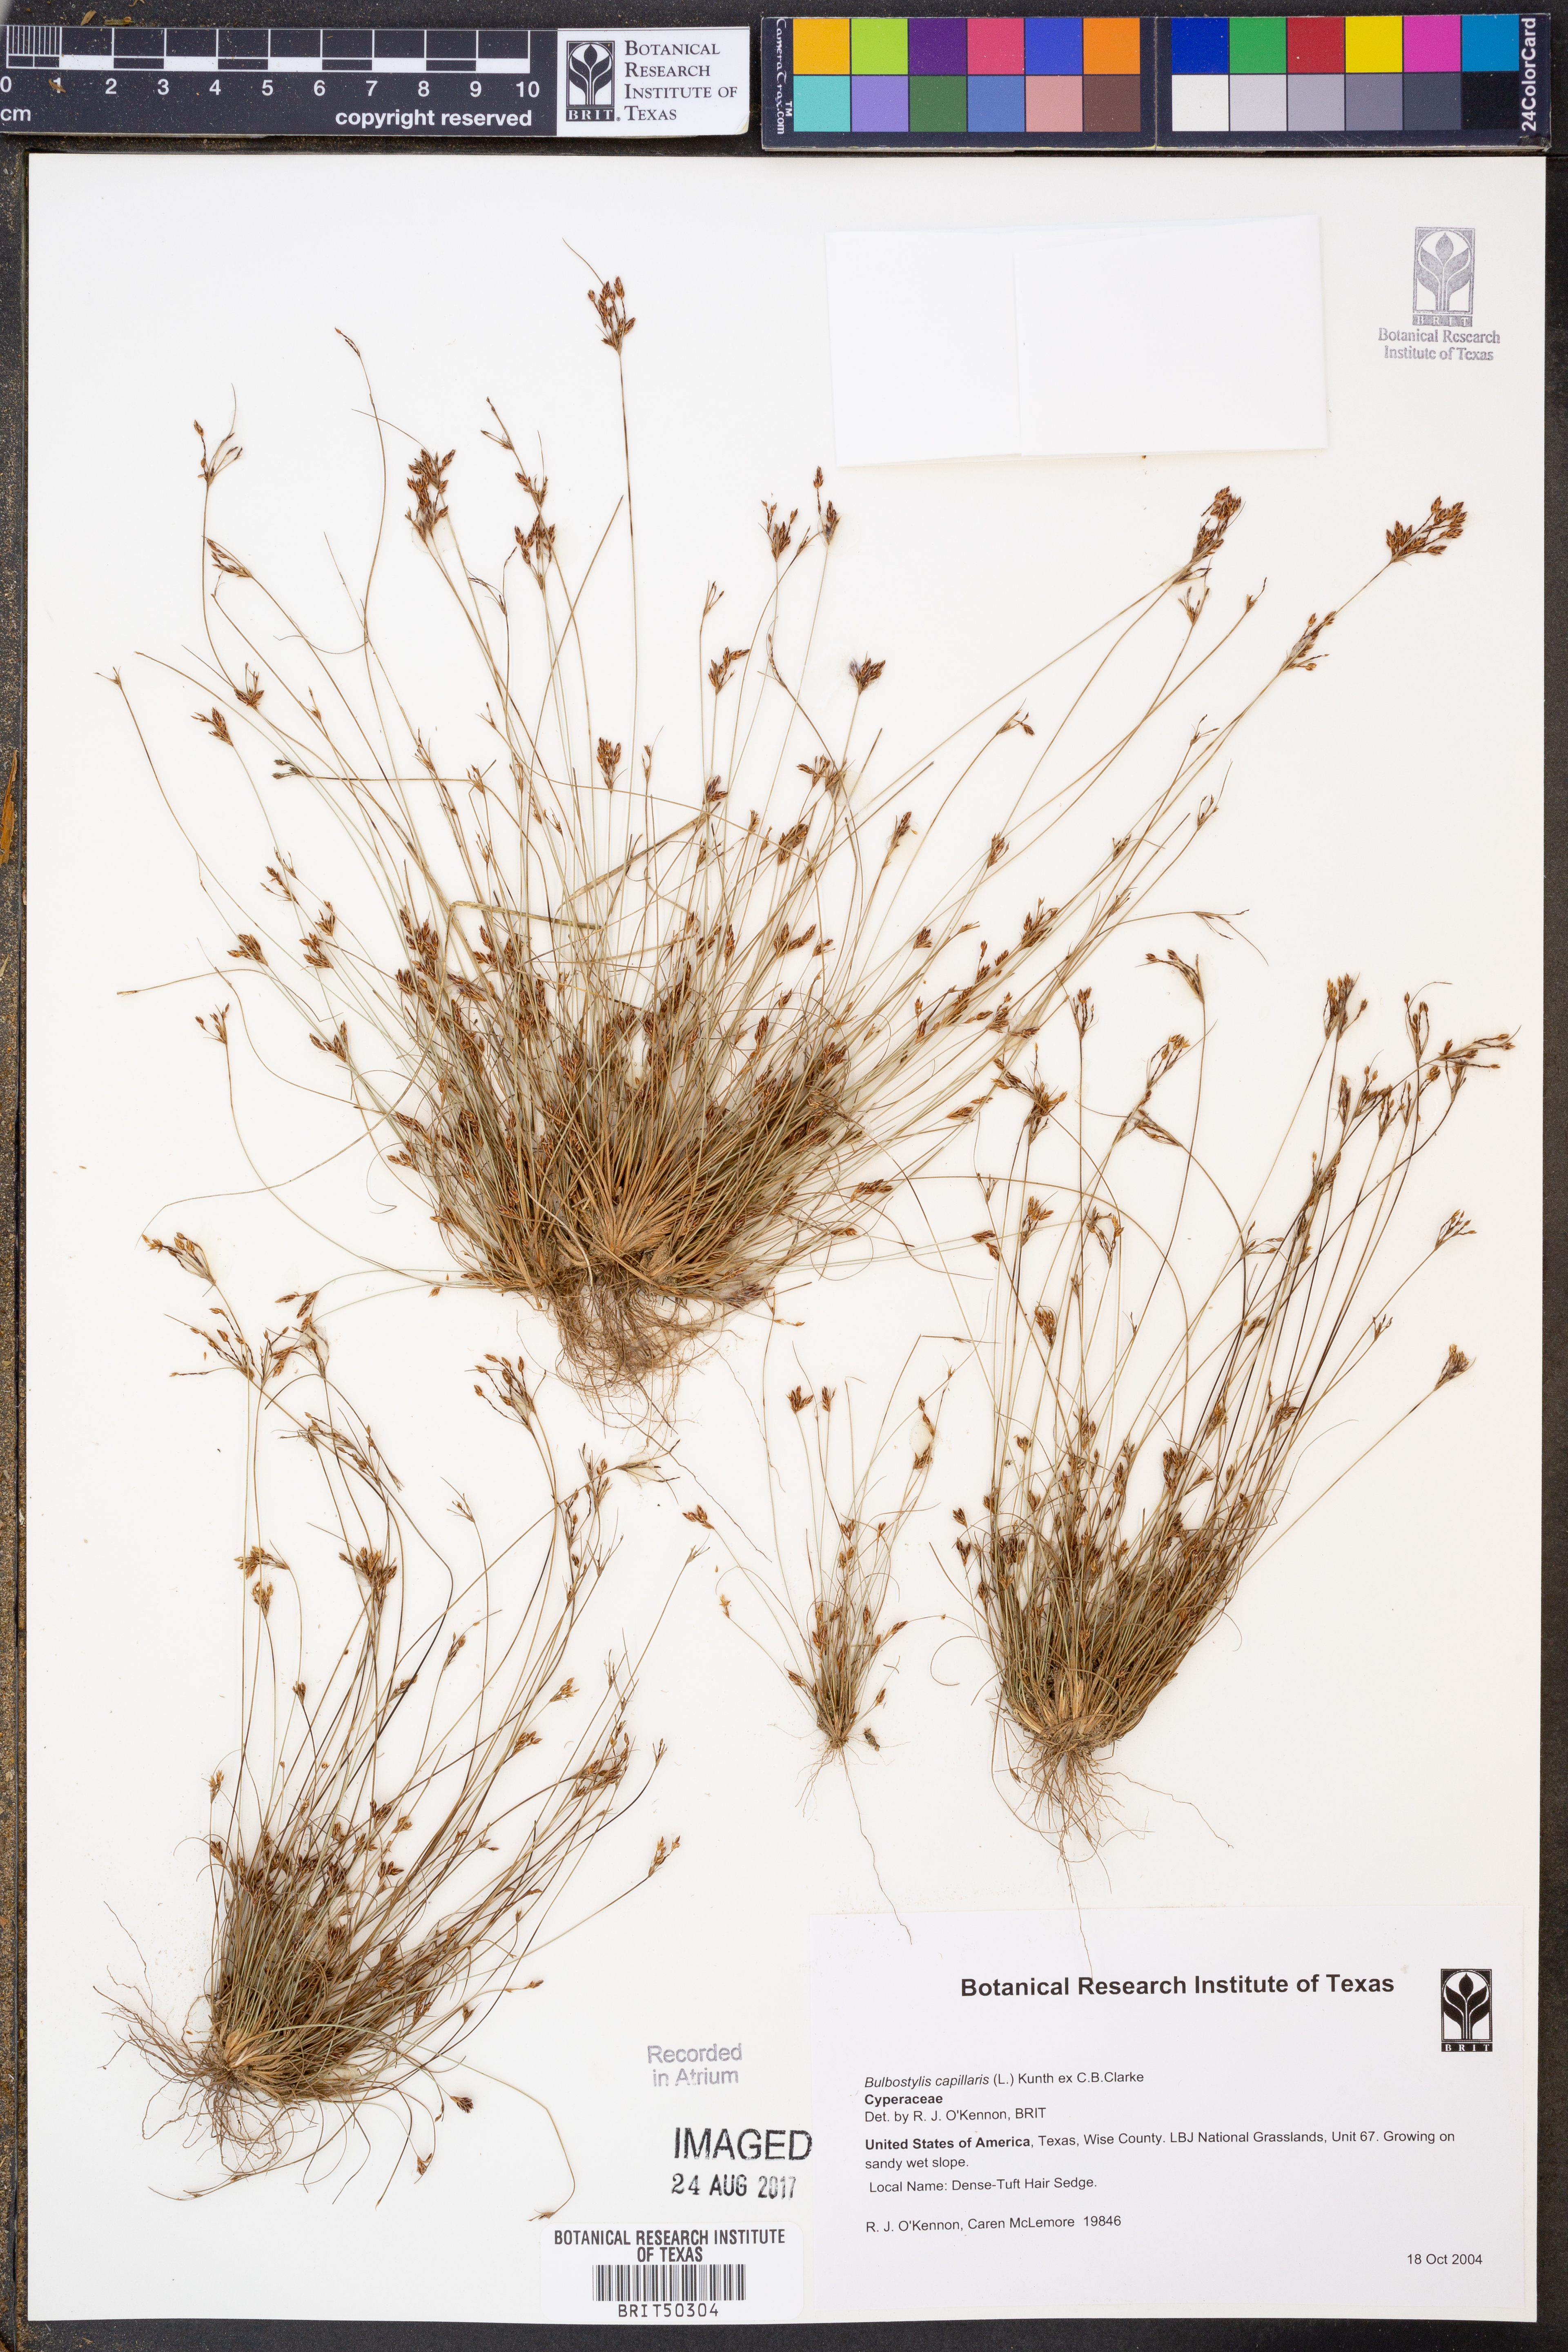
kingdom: Plantae
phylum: Tracheophyta
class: Liliopsida
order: Poales
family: Cyperaceae
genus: Bulbostylis
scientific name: Bulbostylis capillaris
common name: Densetuft hairsedge
